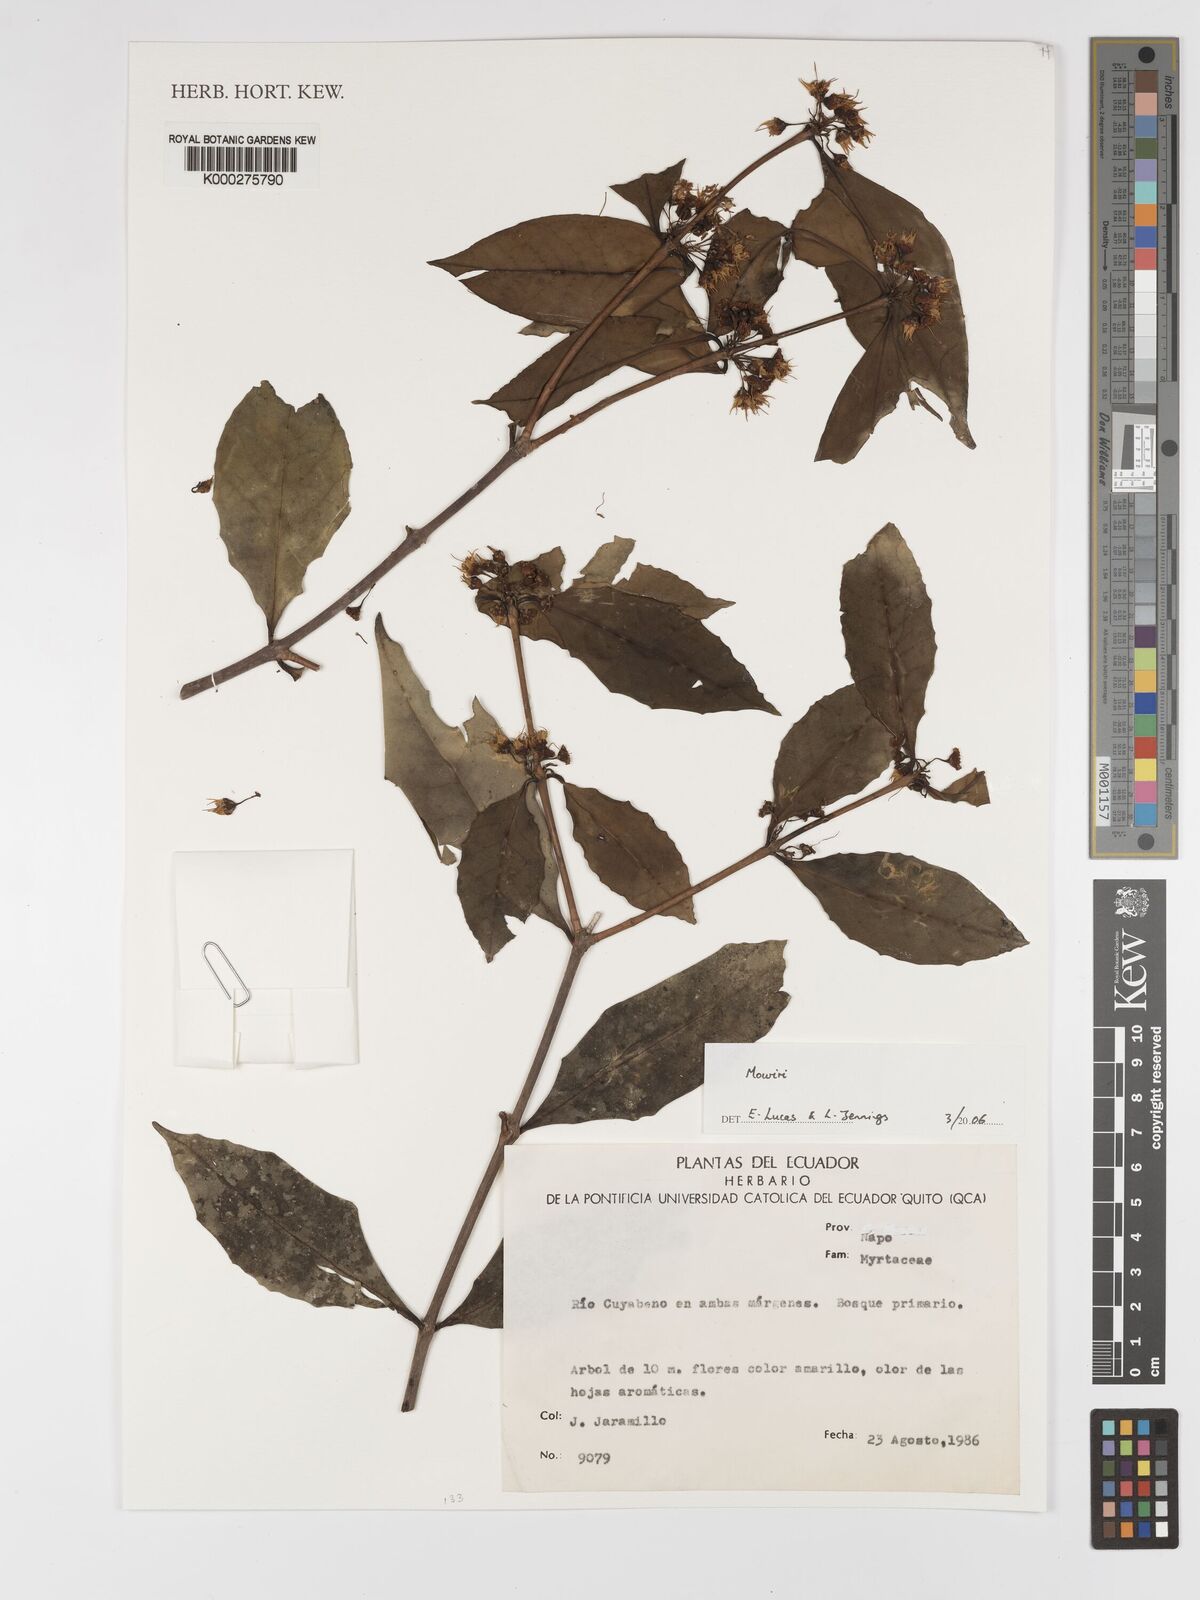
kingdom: Plantae
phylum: Tracheophyta
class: Magnoliopsida
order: Myrtales
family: Melastomataceae
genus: Mouriri
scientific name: Mouriri
